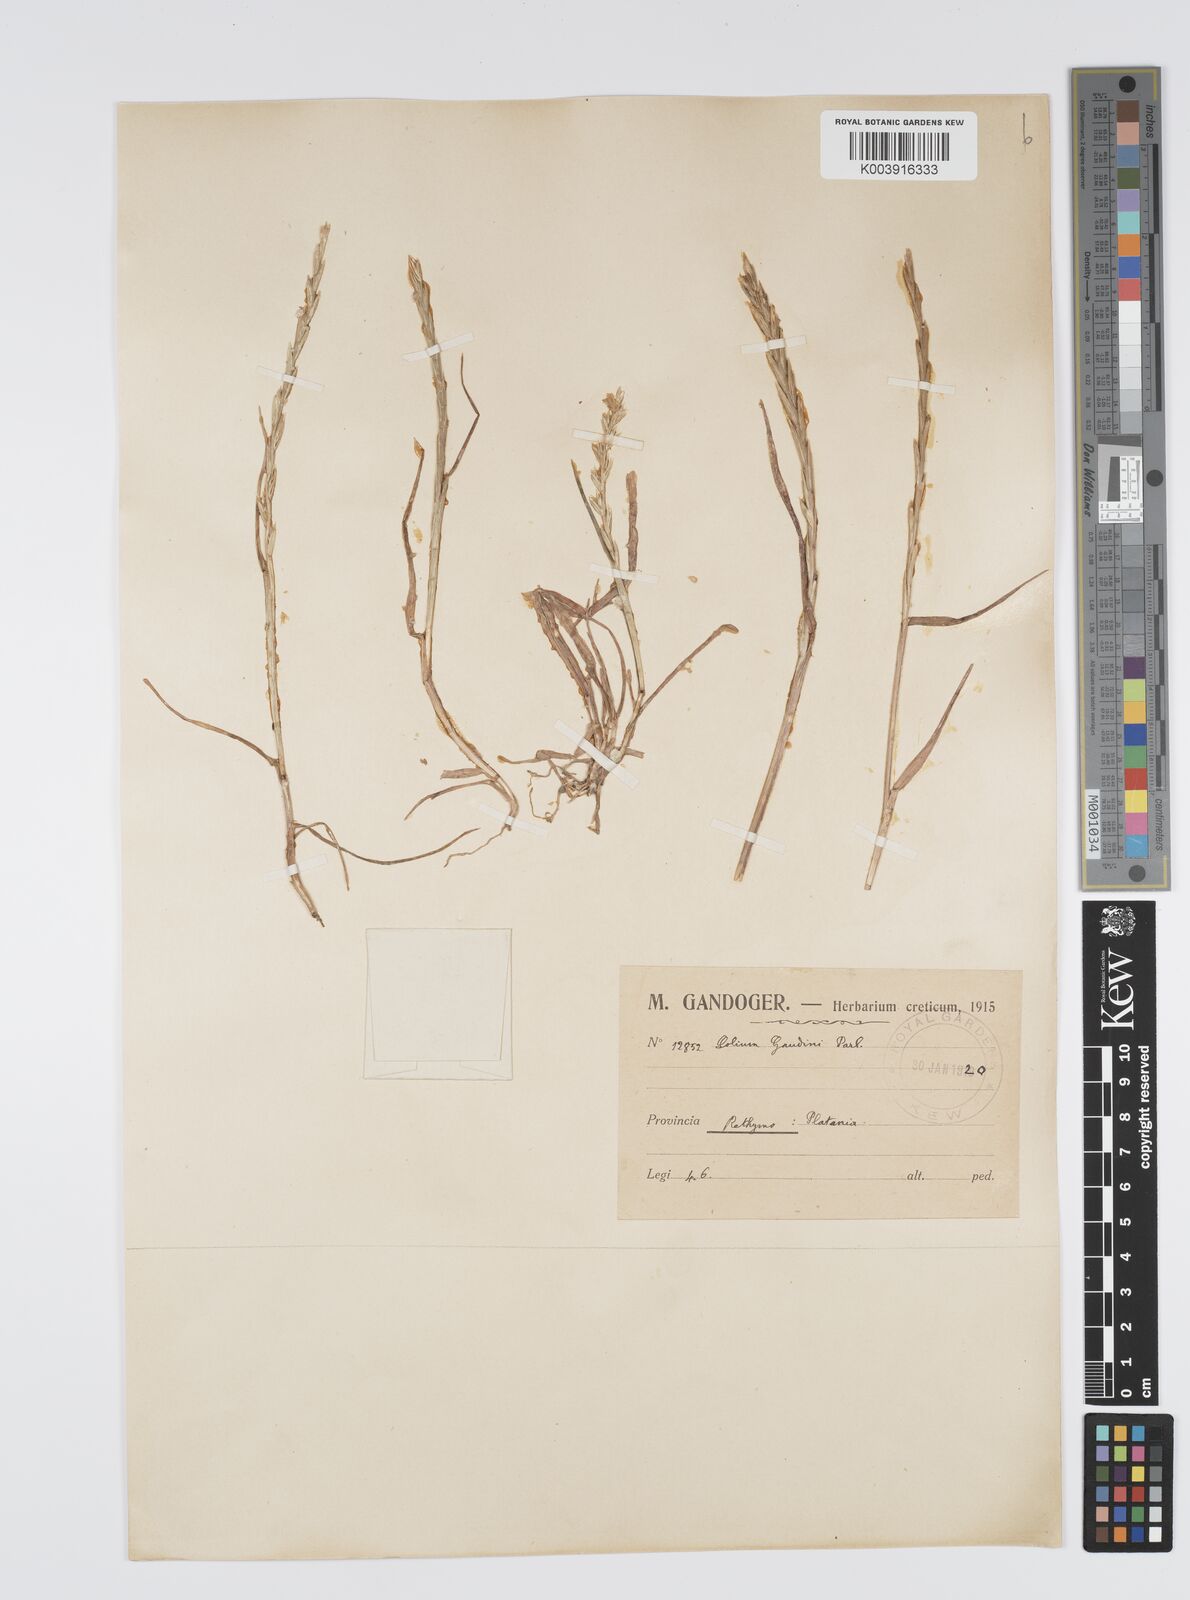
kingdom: Plantae
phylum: Tracheophyta
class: Liliopsida
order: Poales
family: Poaceae
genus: Lolium
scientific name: Lolium rigidum
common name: Wimmera ryegrass
